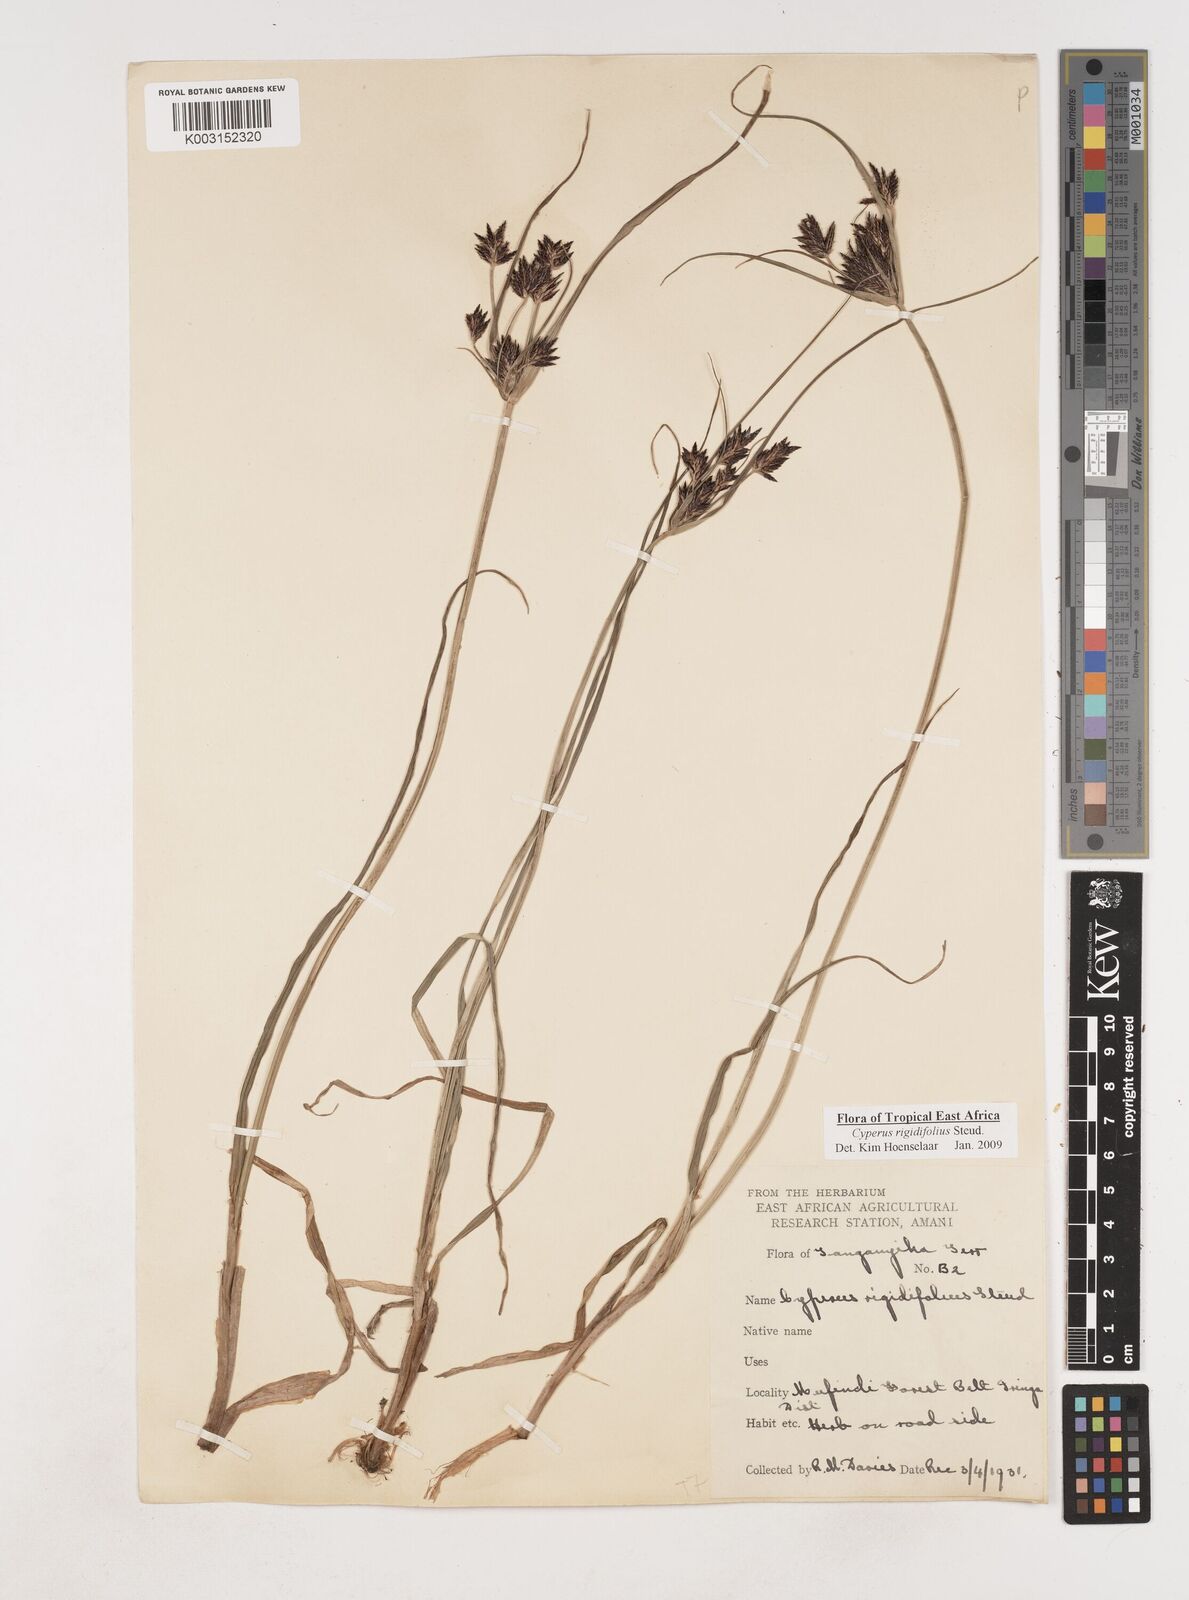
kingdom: Plantae
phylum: Tracheophyta
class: Liliopsida
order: Poales
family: Cyperaceae
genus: Cyperus
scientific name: Cyperus rigidifolius
